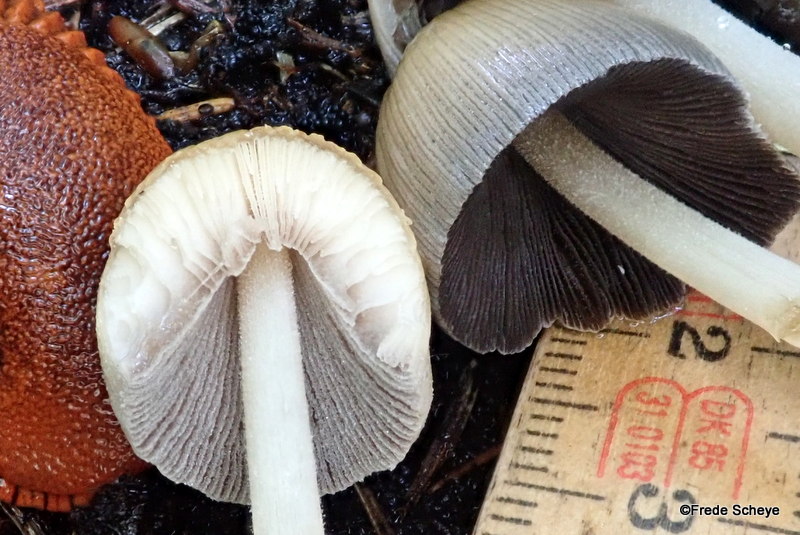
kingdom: Fungi
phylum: Basidiomycota
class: Agaricomycetes
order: Agaricales
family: Psathyrellaceae
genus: Coprinellus
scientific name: Coprinellus micaceus
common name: glimmer-blækhat
